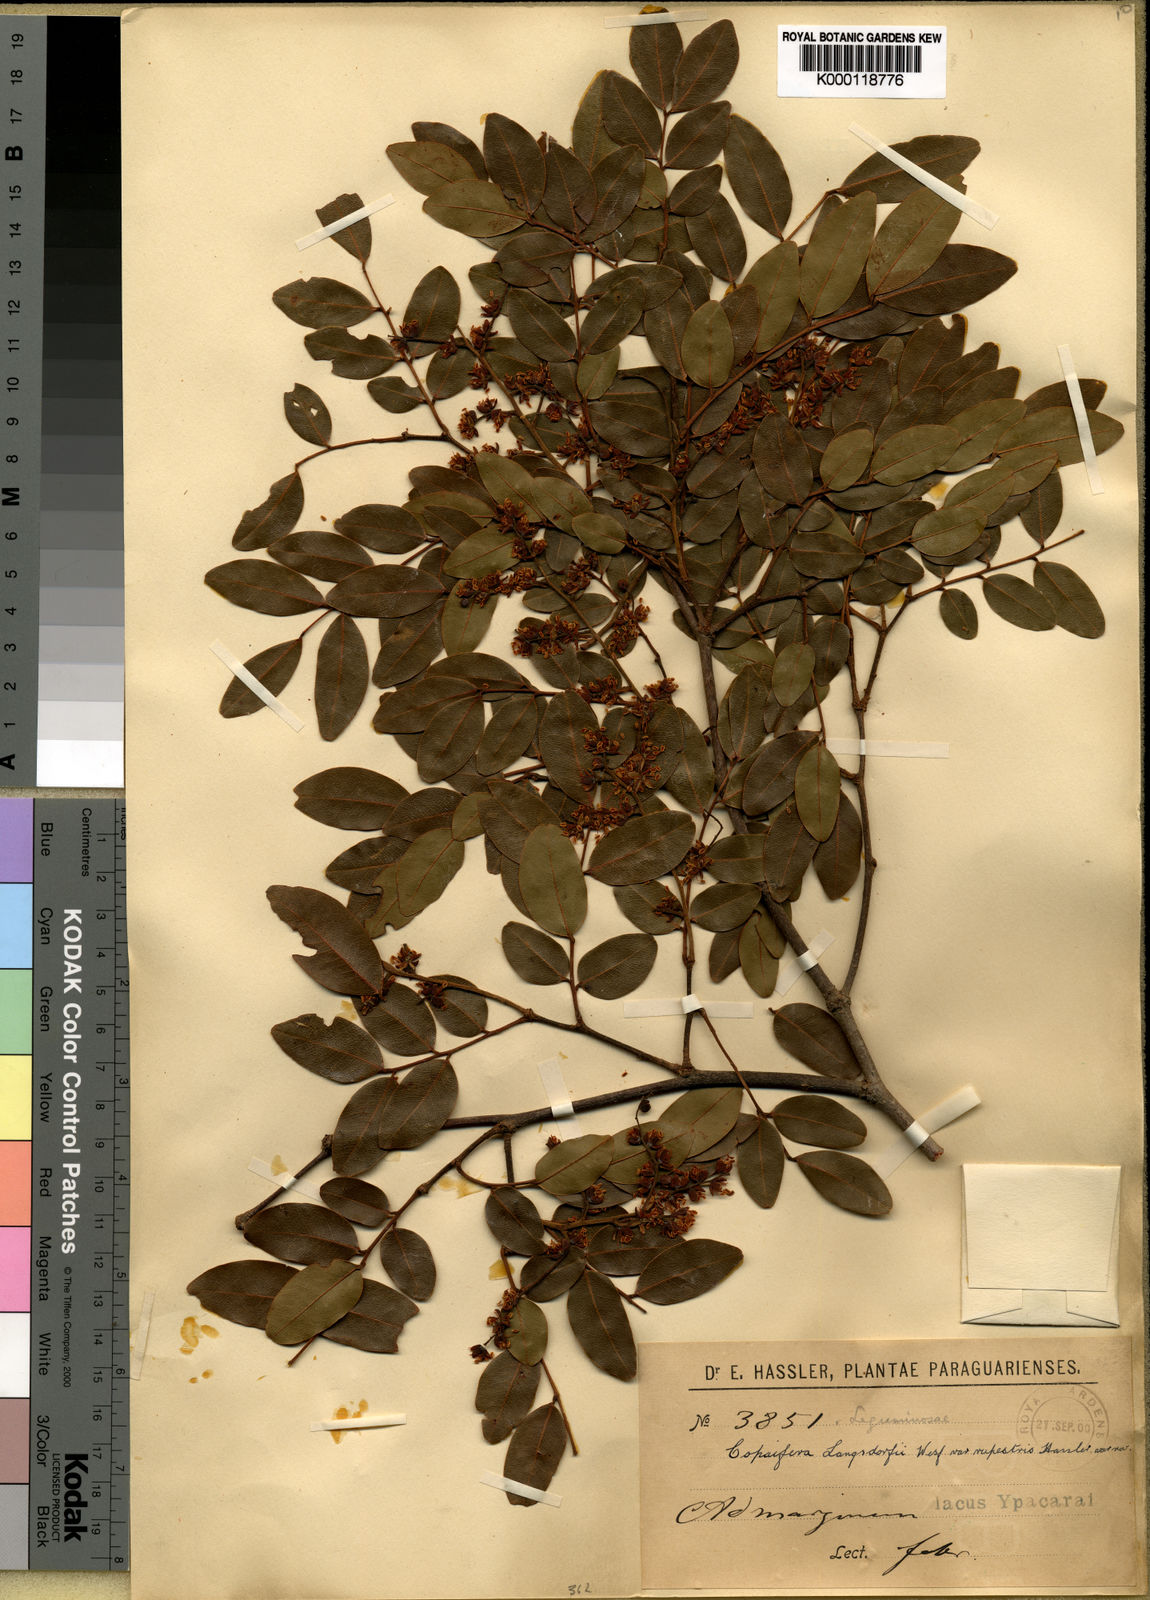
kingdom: Plantae
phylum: Tracheophyta
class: Magnoliopsida
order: Fabales
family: Fabaceae
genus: Copaifera
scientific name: Copaifera langsdorffii
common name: Brazilian diesel tree
